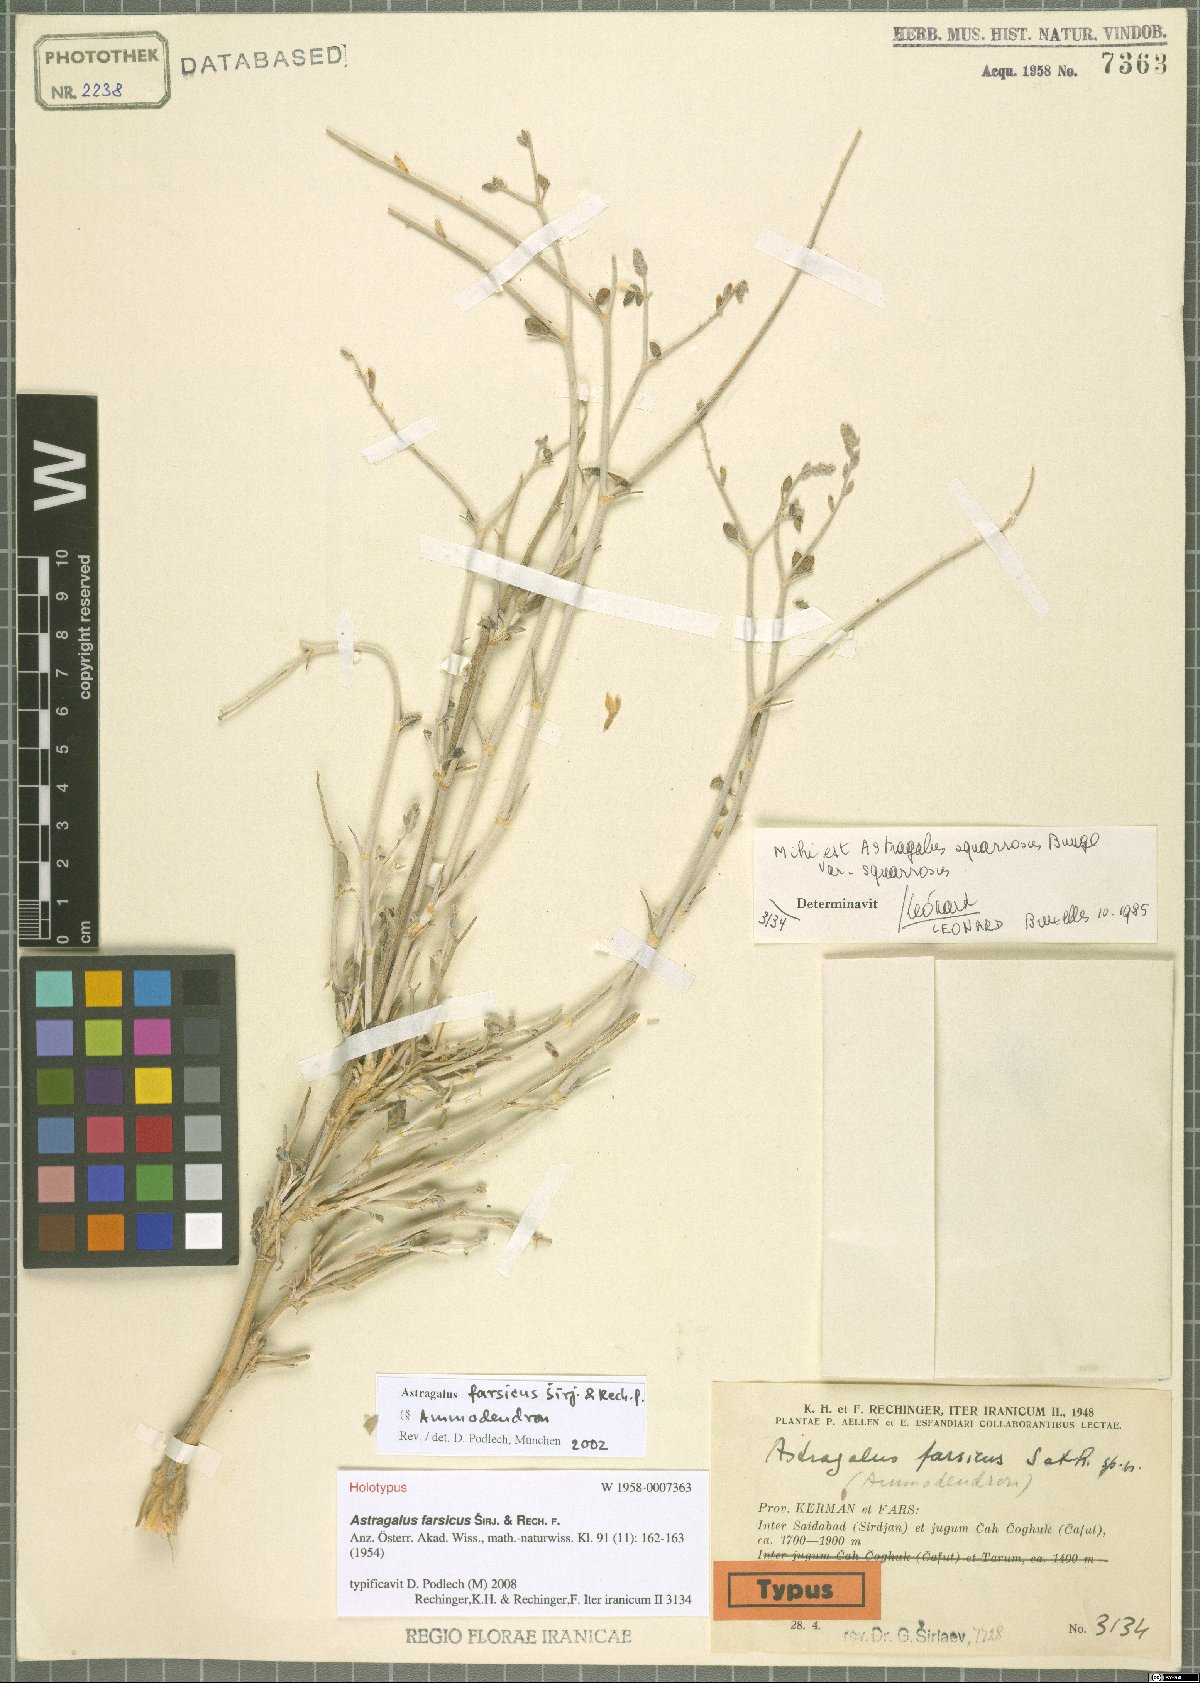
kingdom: Plantae
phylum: Tracheophyta
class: Magnoliopsida
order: Fabales
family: Fabaceae
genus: Astragalus
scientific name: Astragalus farsicus
